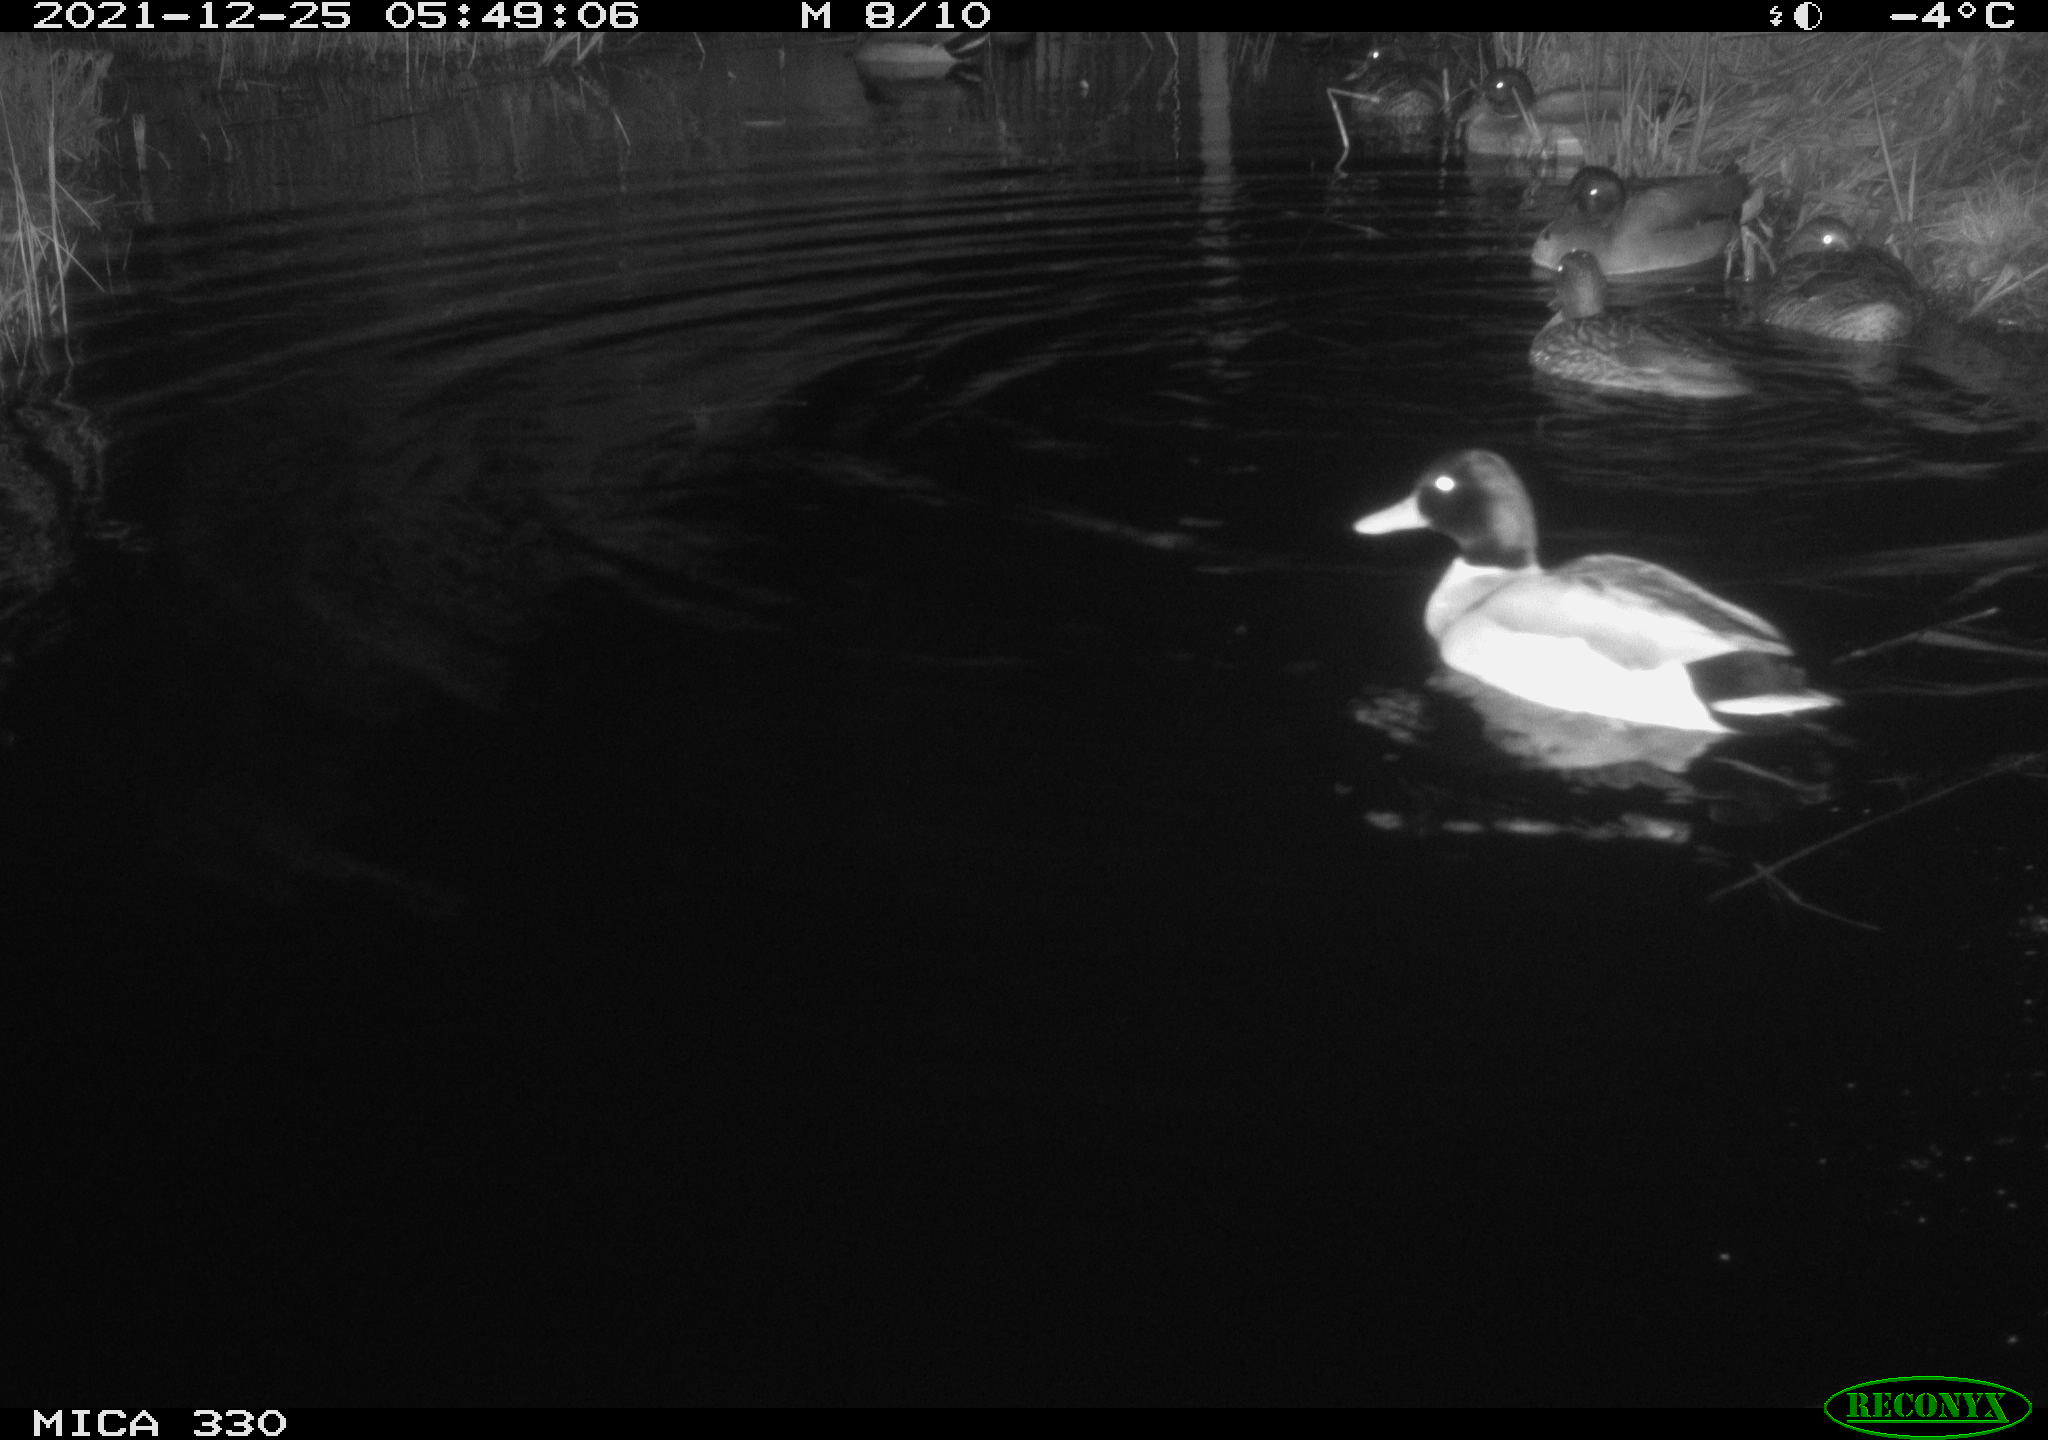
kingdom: Animalia
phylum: Chordata
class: Aves
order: Anseriformes
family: Anatidae
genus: Anas
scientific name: Anas platyrhynchos
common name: Mallard
